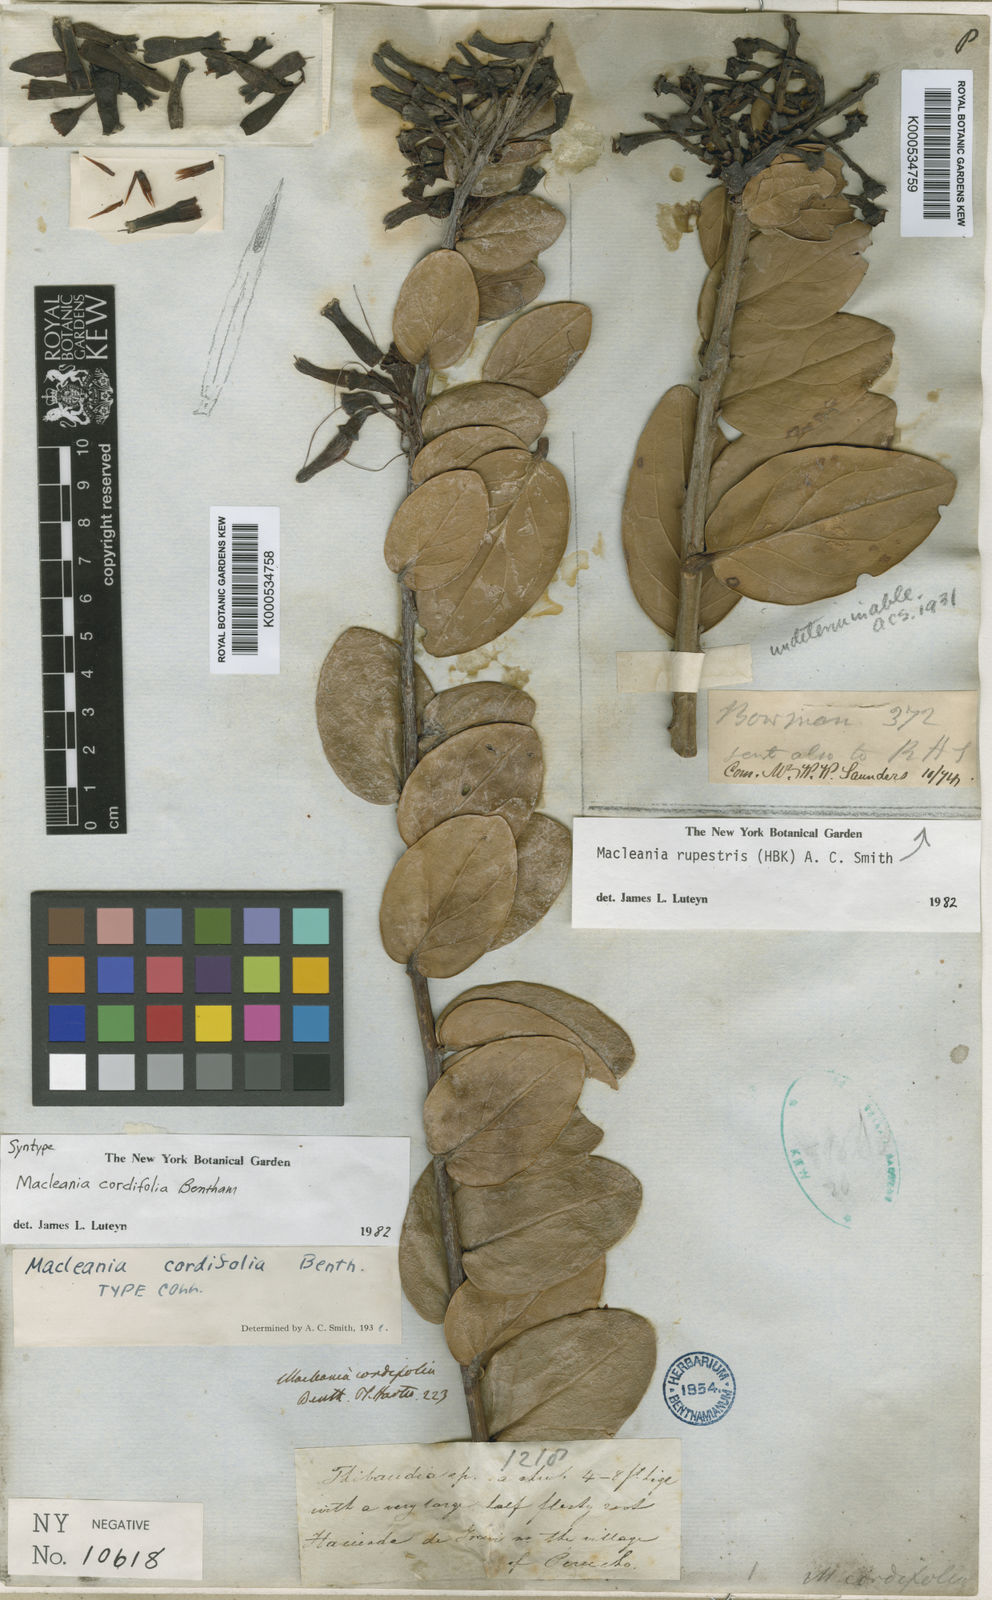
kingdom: Plantae
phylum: Tracheophyta
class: Magnoliopsida
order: Ericales
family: Ericaceae
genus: Macleania
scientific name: Macleania cordifolia
